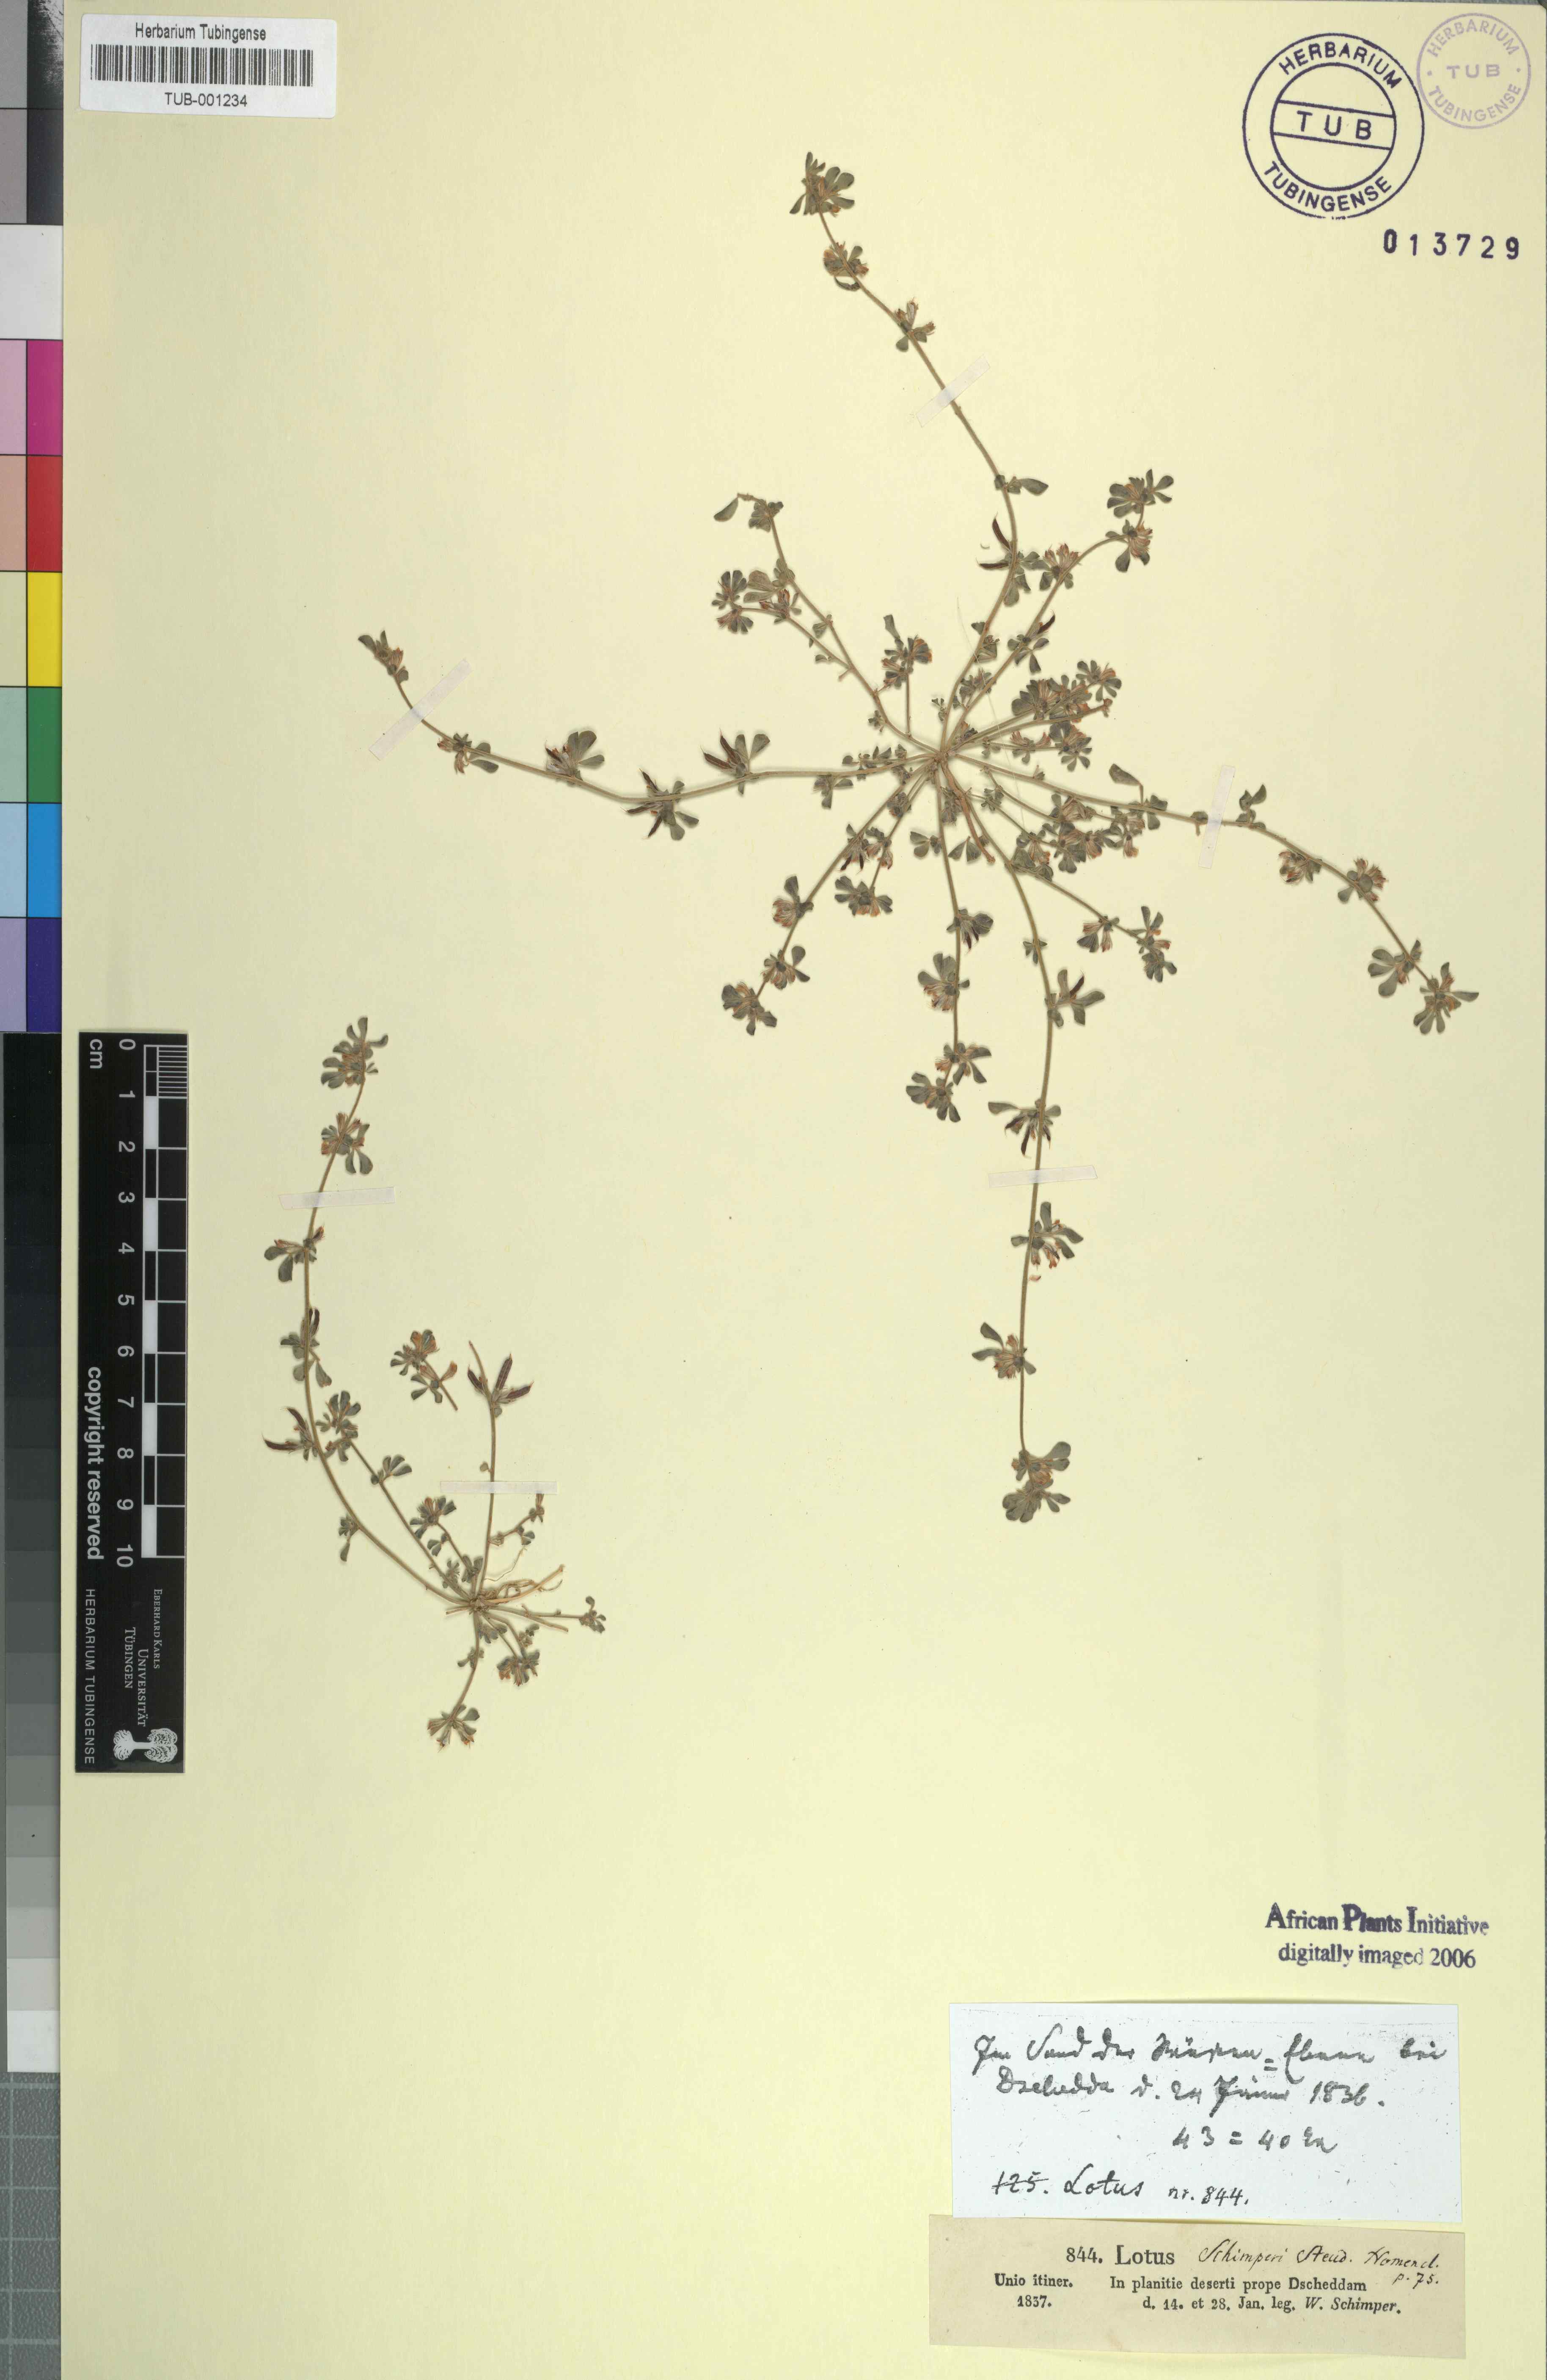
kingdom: Plantae
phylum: Tracheophyta
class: Magnoliopsida
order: Fabales
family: Fabaceae
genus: Lotus
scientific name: Lotus glinoides
